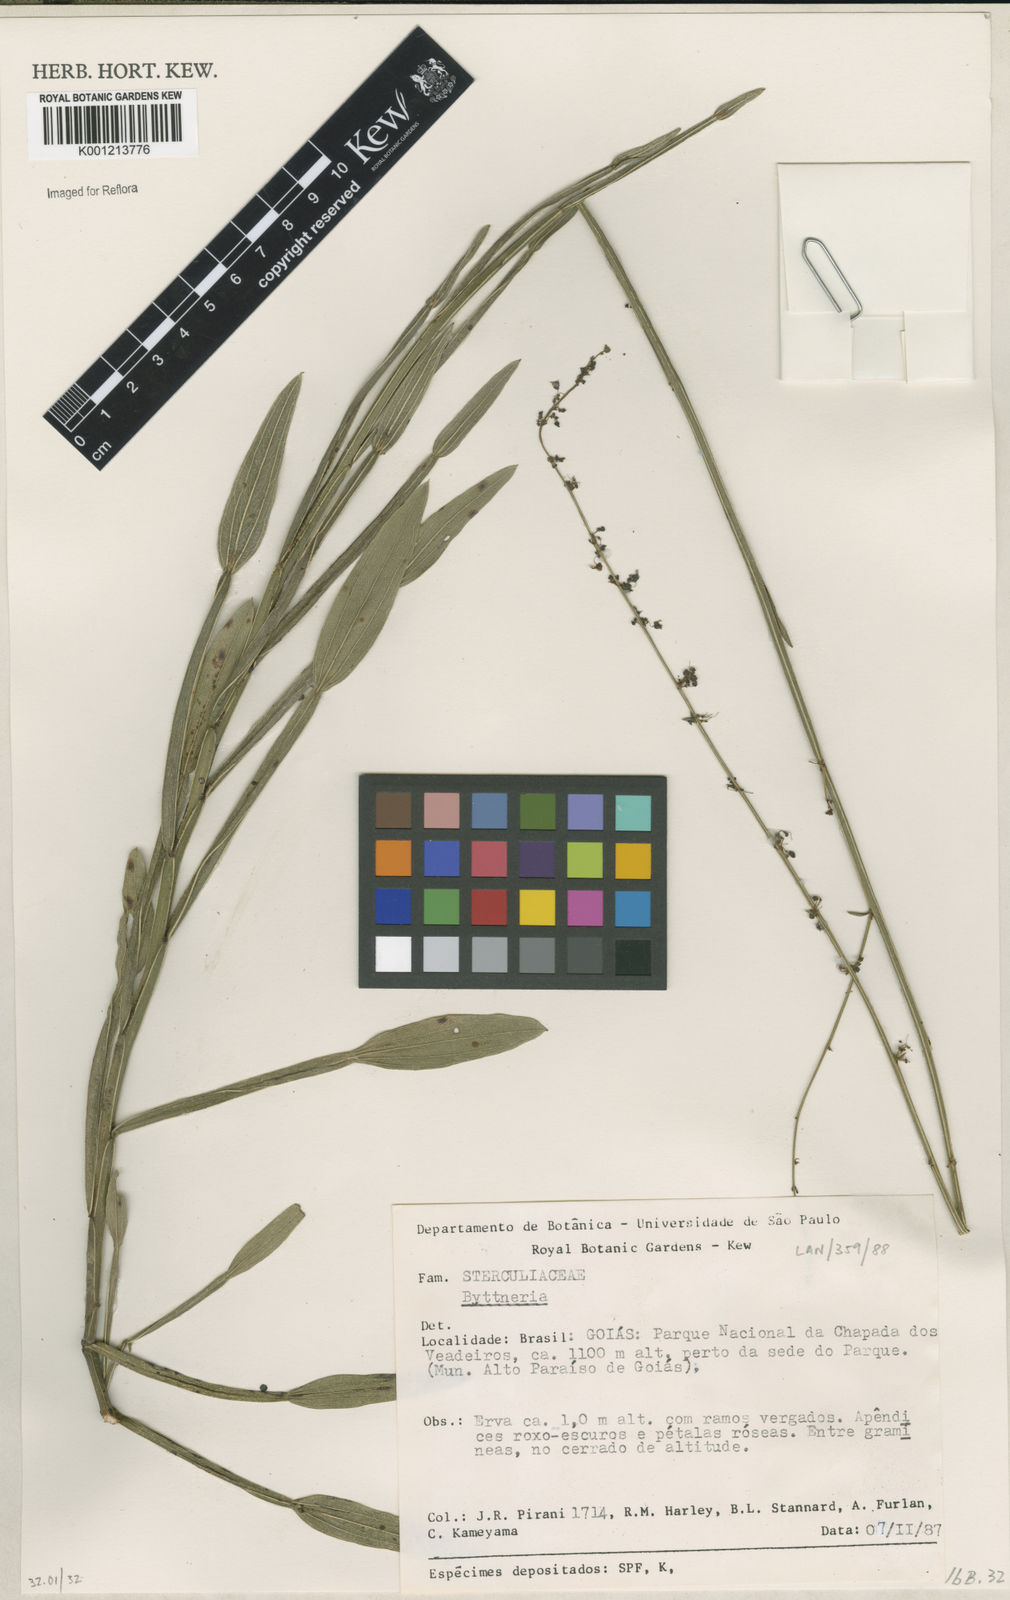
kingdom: Plantae
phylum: Tracheophyta
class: Magnoliopsida
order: Malvales
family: Malvaceae
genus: Byttneria
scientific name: Byttneria
